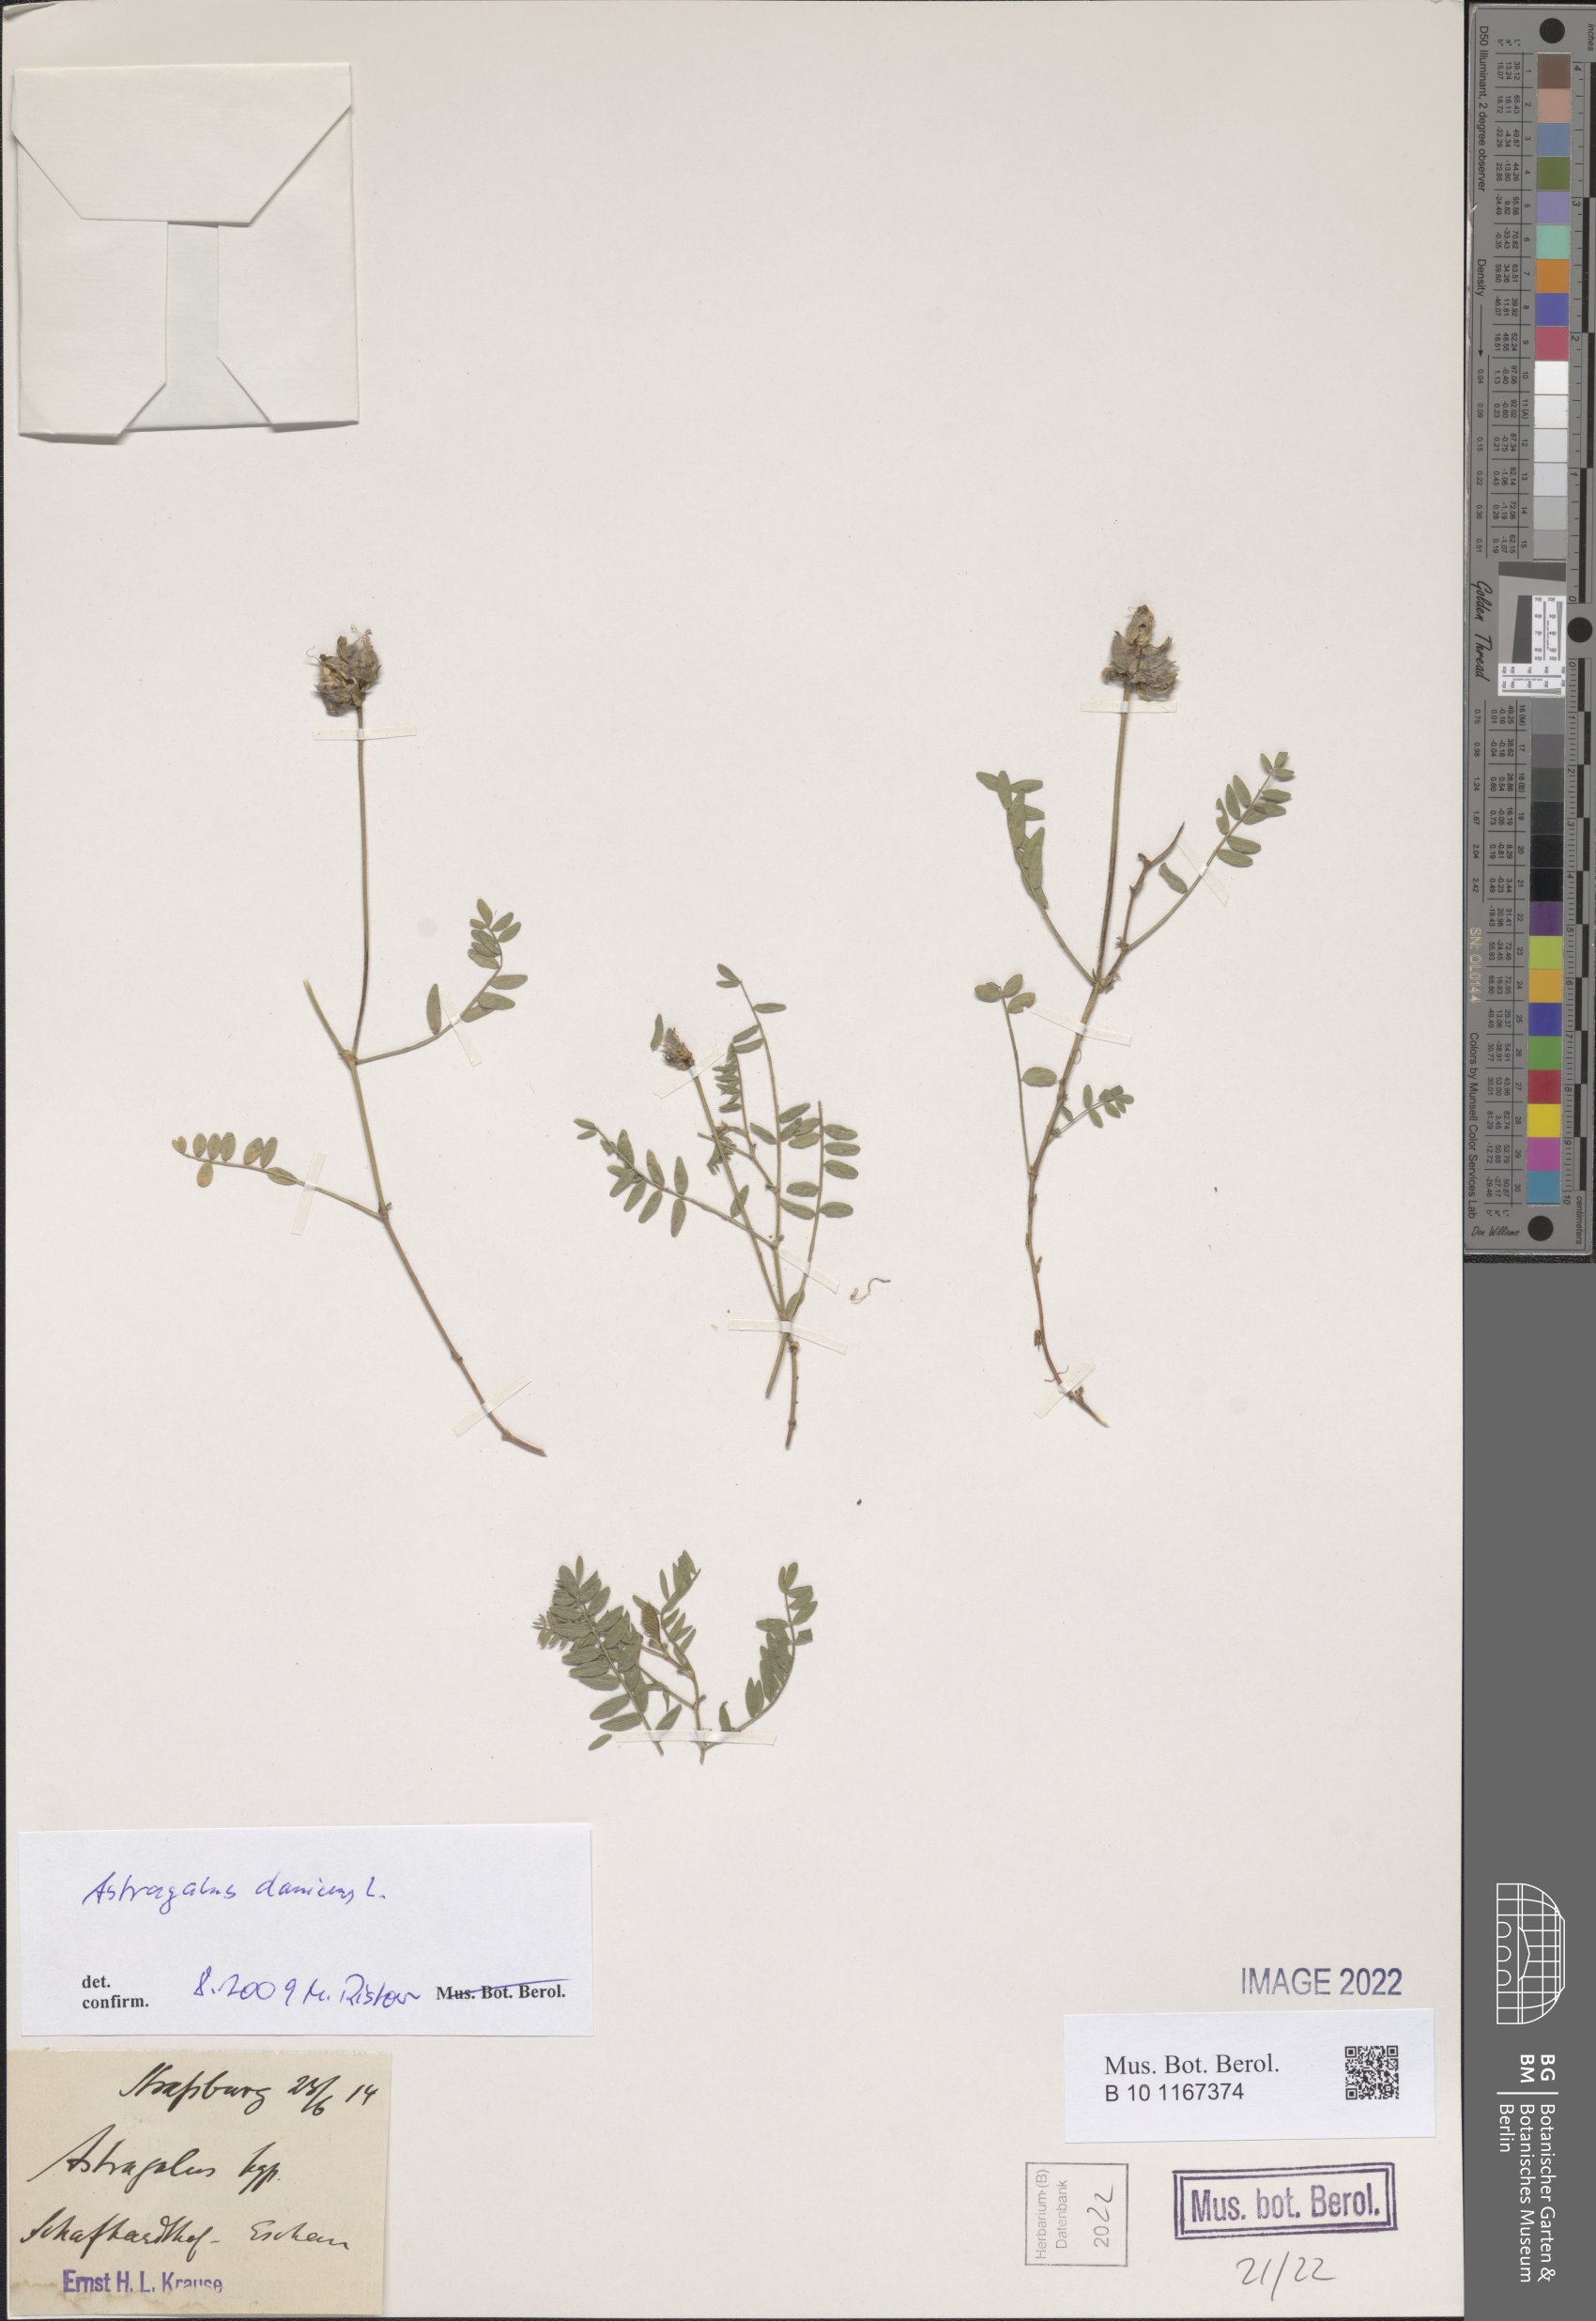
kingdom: Plantae
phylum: Tracheophyta
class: Magnoliopsida
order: Fabales
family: Fabaceae
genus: Astragalus
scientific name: Astragalus danicus
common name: Purple milk-vetch
